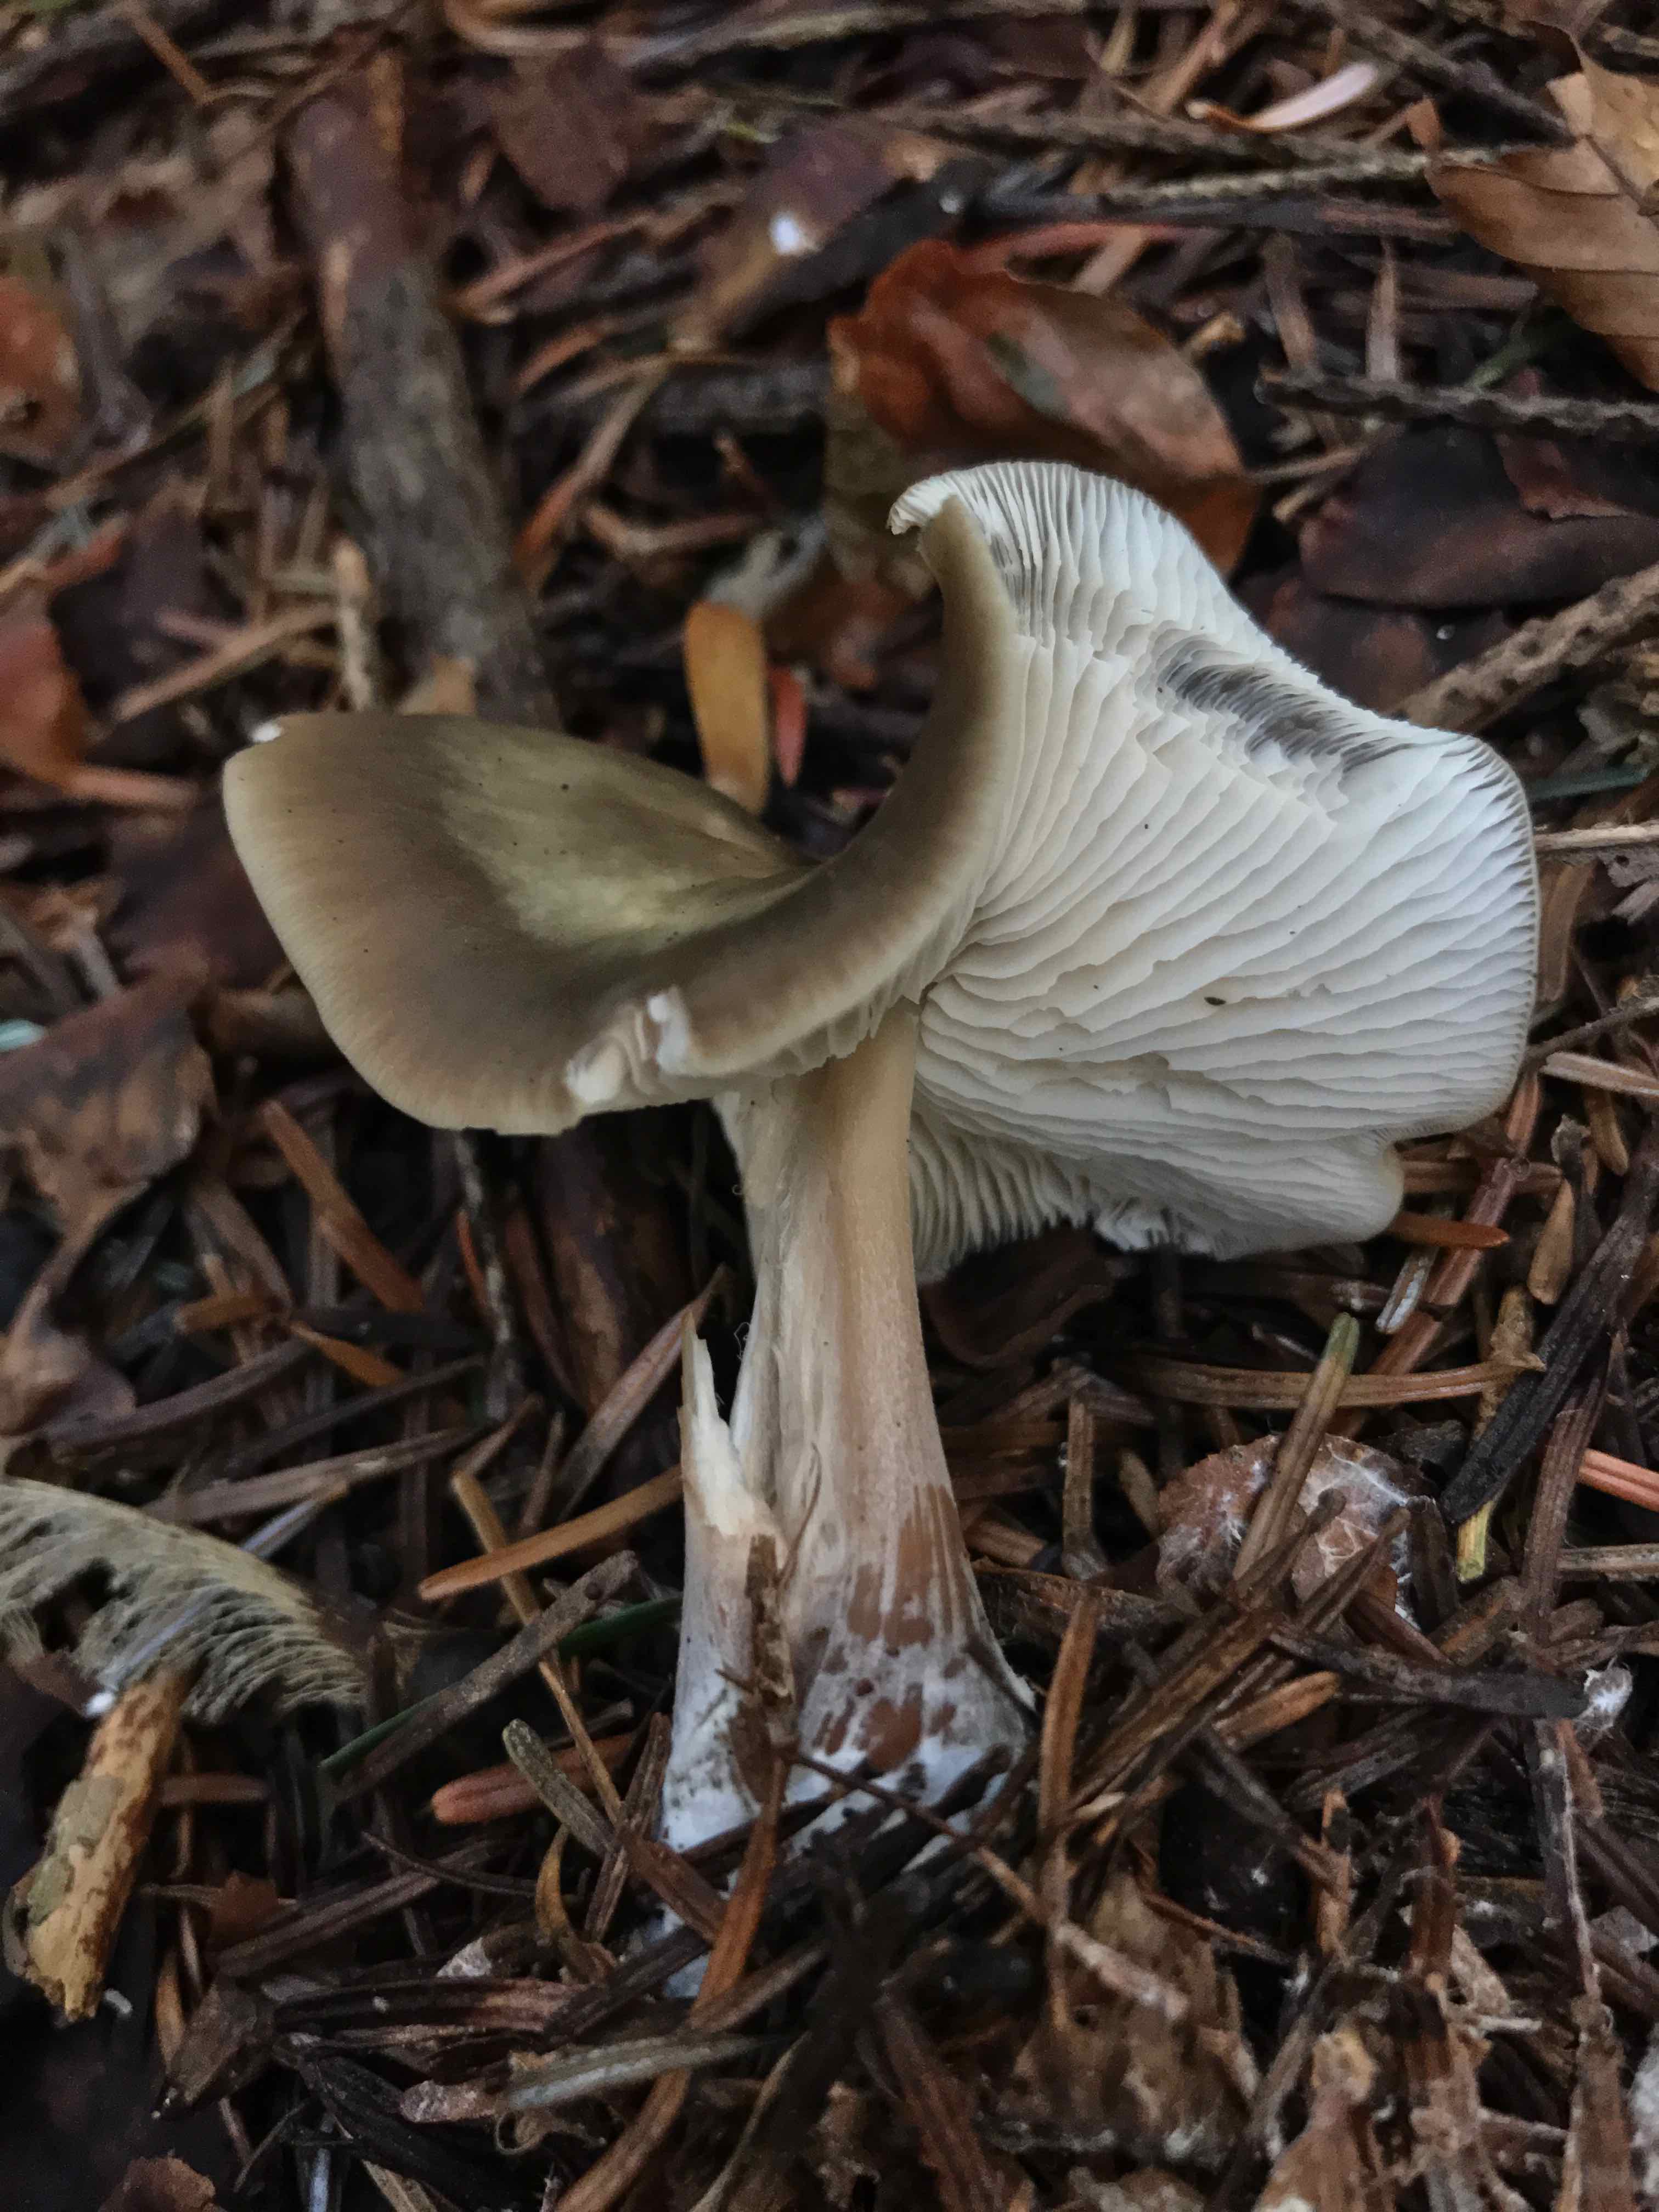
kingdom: Fungi
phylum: Basidiomycota
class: Agaricomycetes
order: Agaricales
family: Omphalotaceae
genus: Rhodocollybia
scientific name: Rhodocollybia asema
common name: horngrå fladhat
